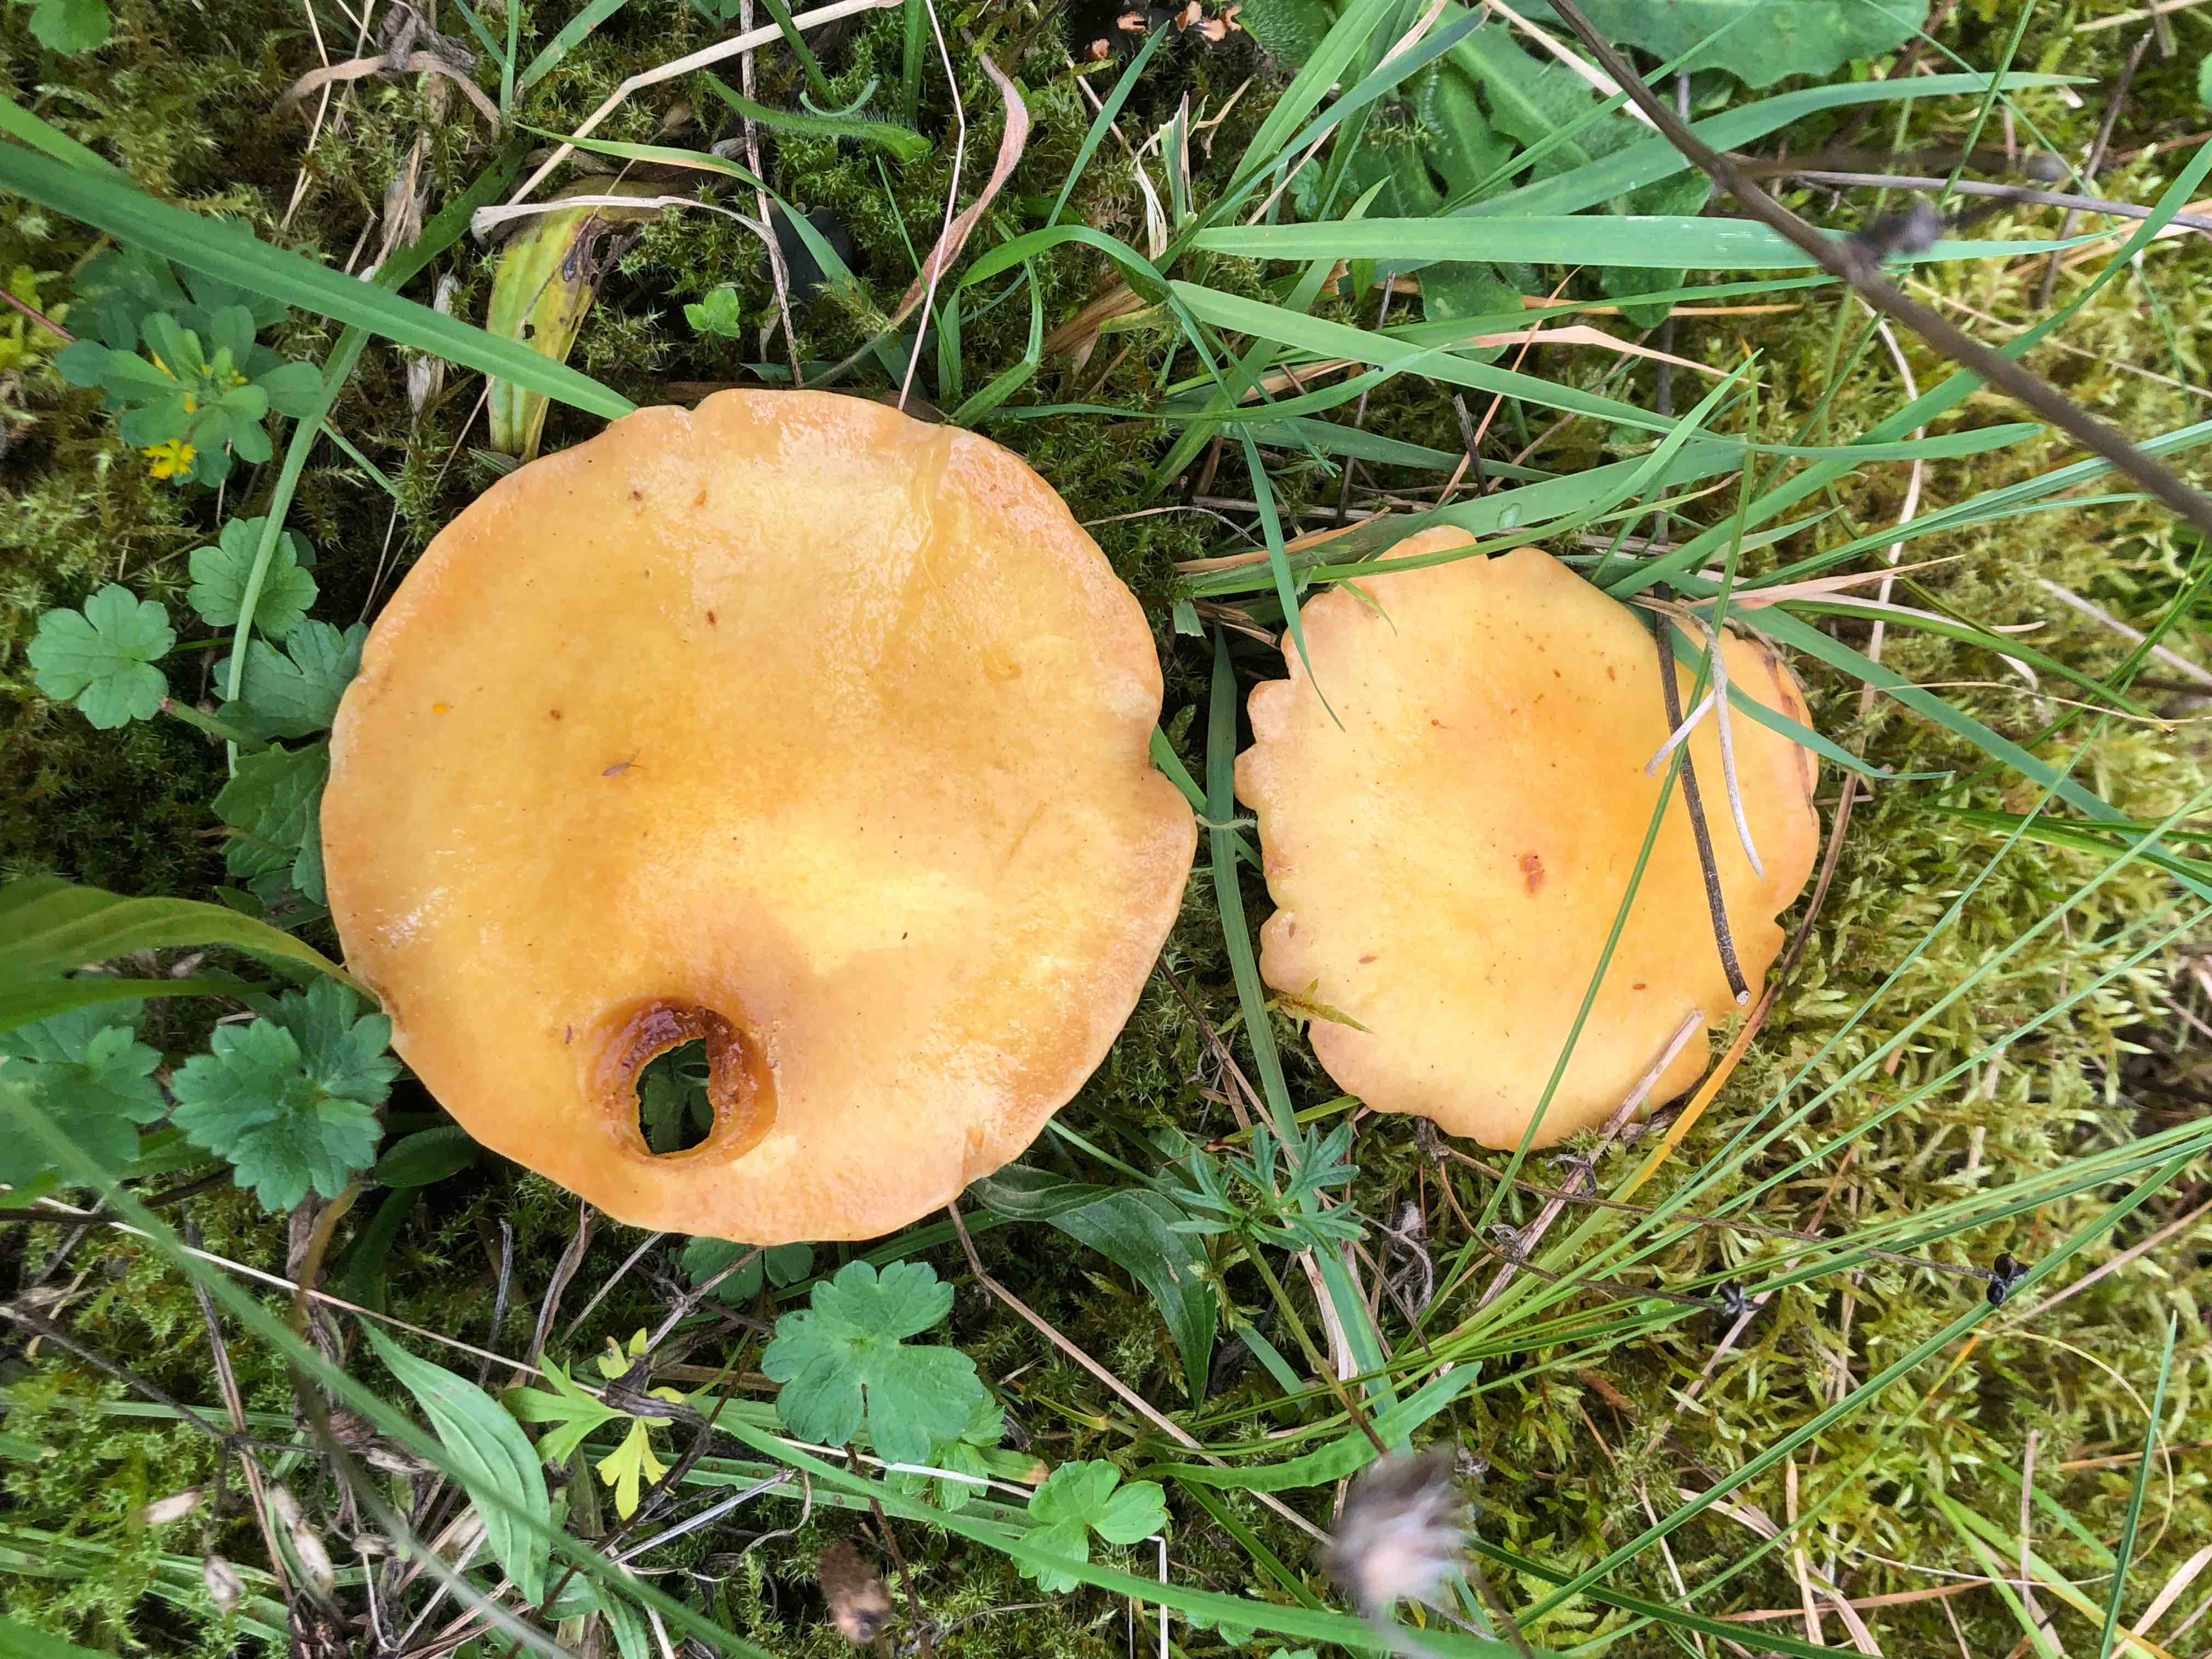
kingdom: Fungi
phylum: Basidiomycota
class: Agaricomycetes
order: Boletales
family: Suillaceae
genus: Suillus
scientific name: Suillus grevillei
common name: lærke-slimrørhat
